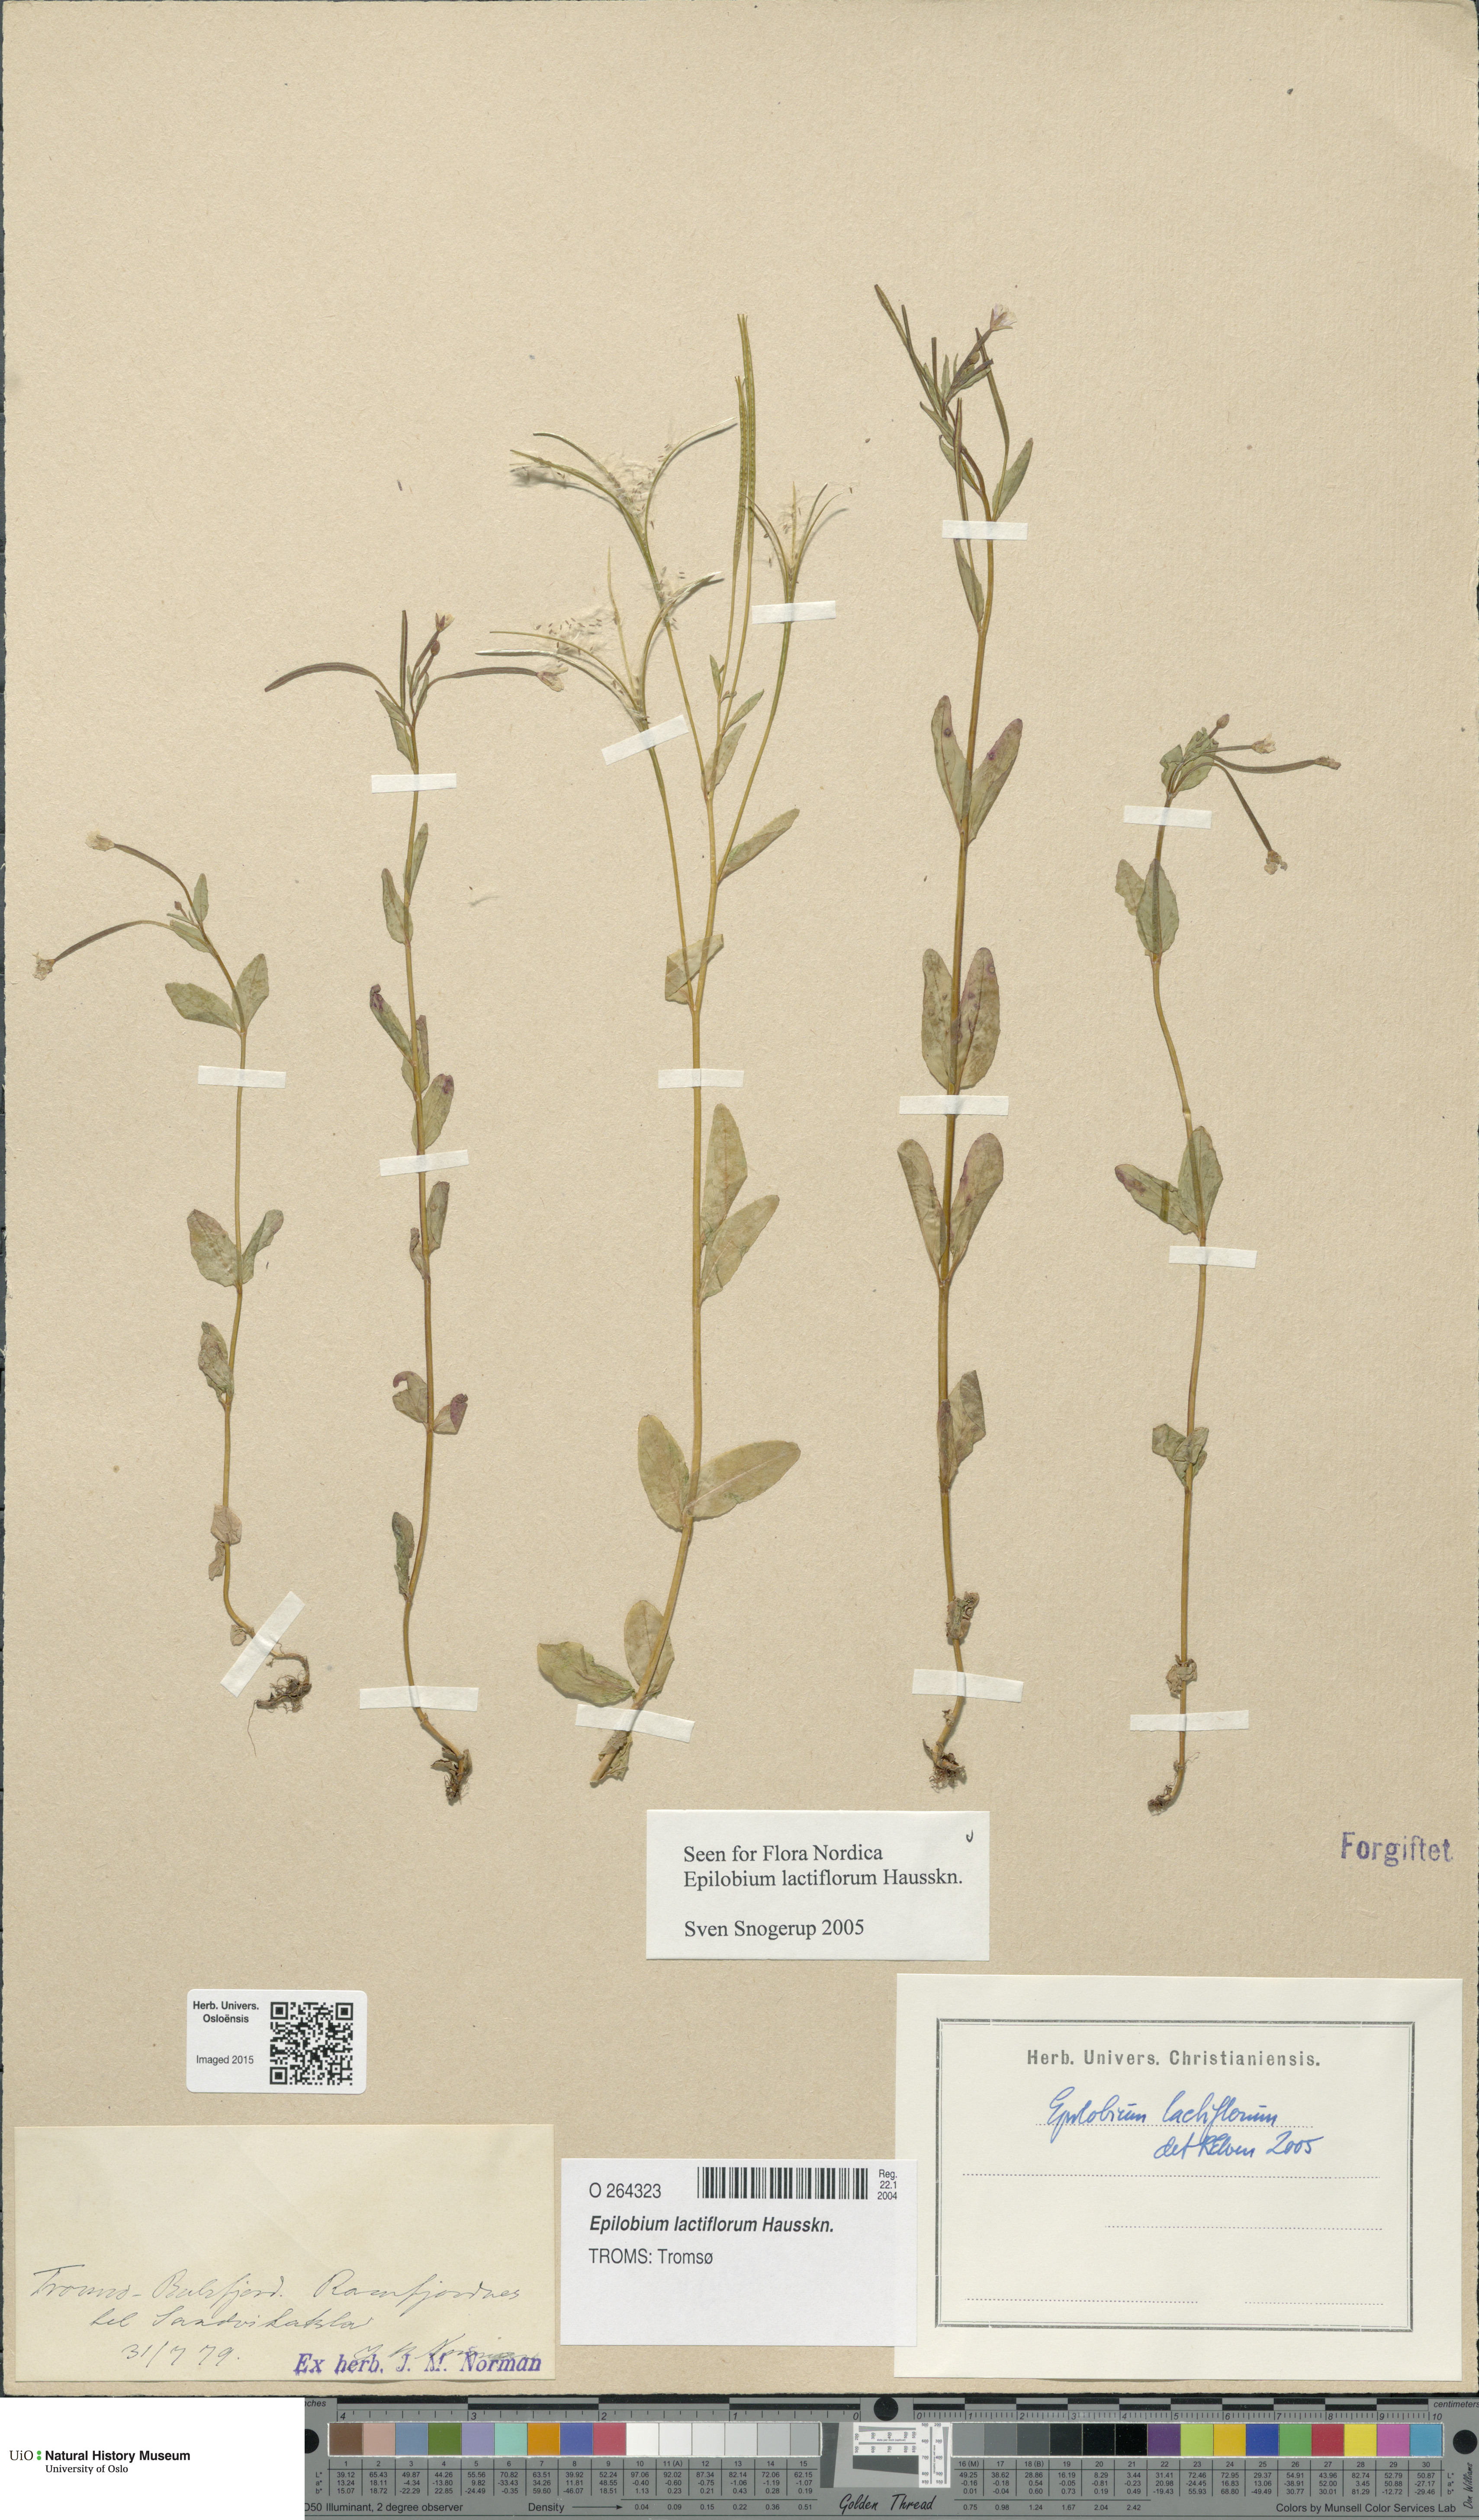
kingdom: Plantae
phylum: Tracheophyta
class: Magnoliopsida
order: Myrtales
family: Onagraceae
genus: Epilobium
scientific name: Epilobium lactiflorum
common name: Milkflower willowherb
